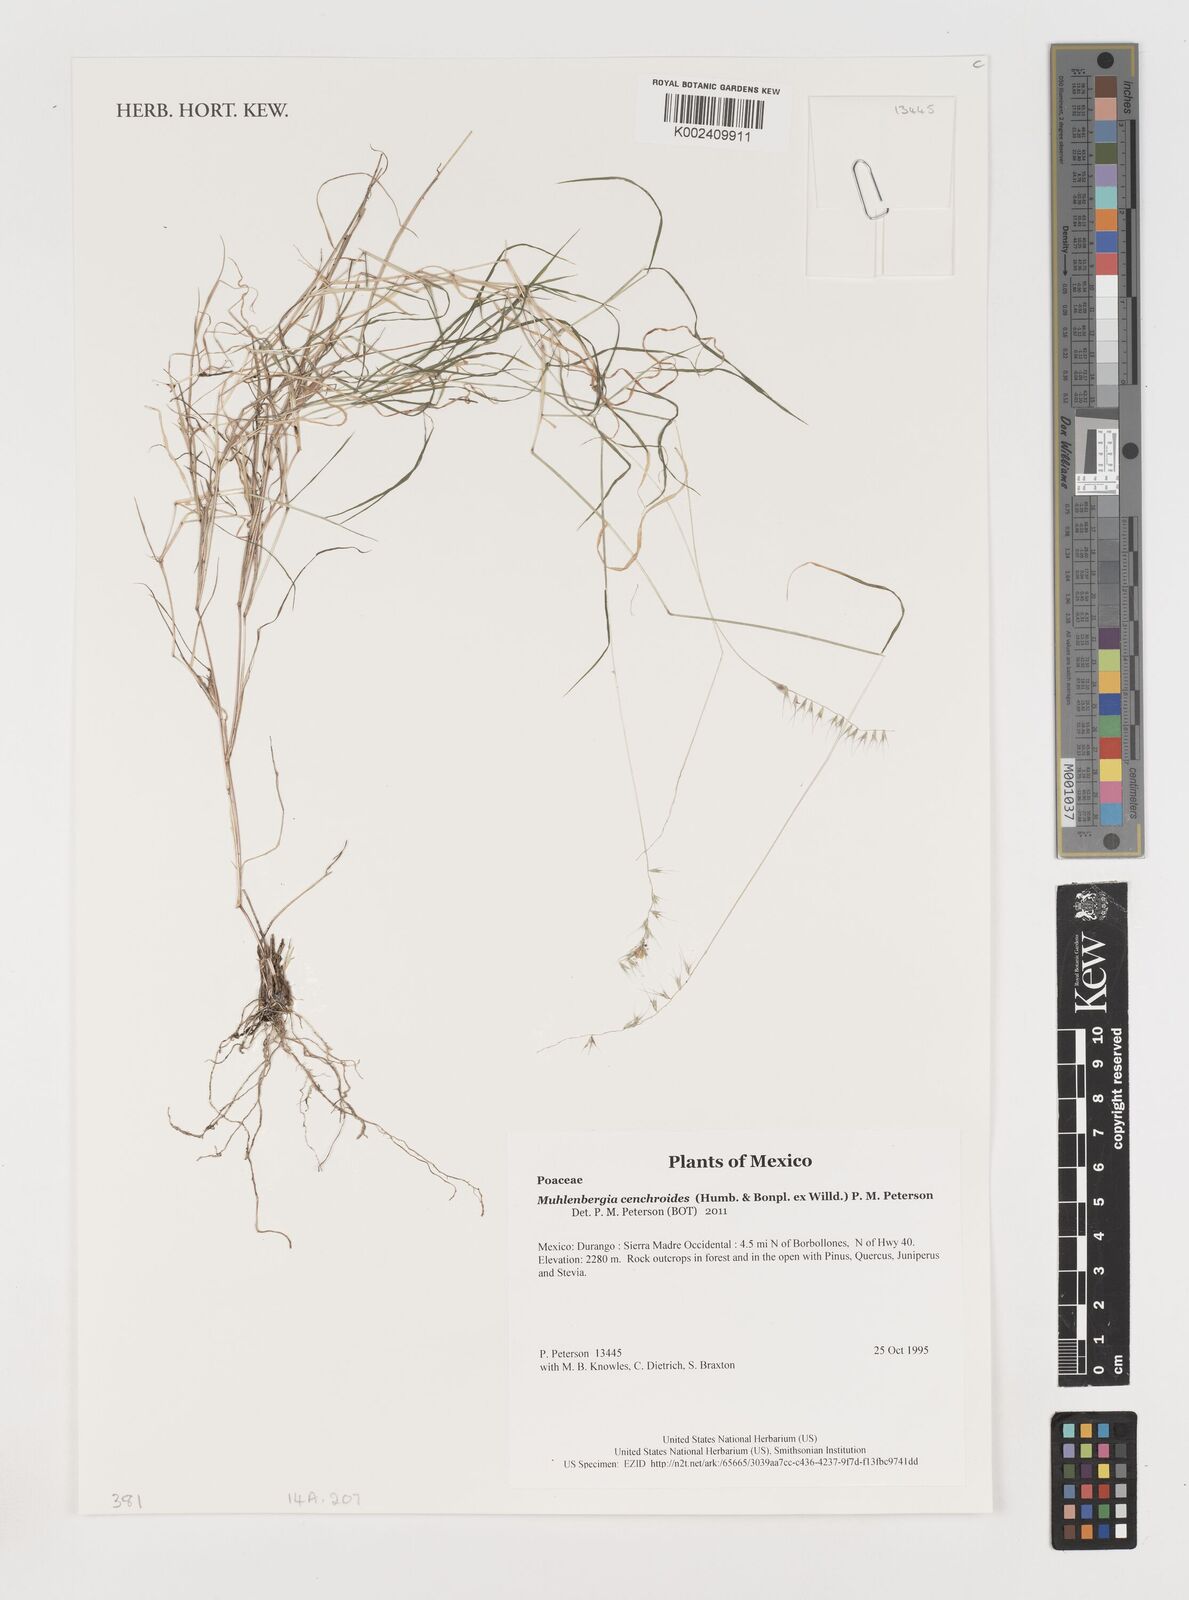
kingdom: Plantae
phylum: Tracheophyta
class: Liliopsida
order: Poales
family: Poaceae
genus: Muhlenbergia
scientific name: Muhlenbergia cenchroides
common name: Relaxgrass
